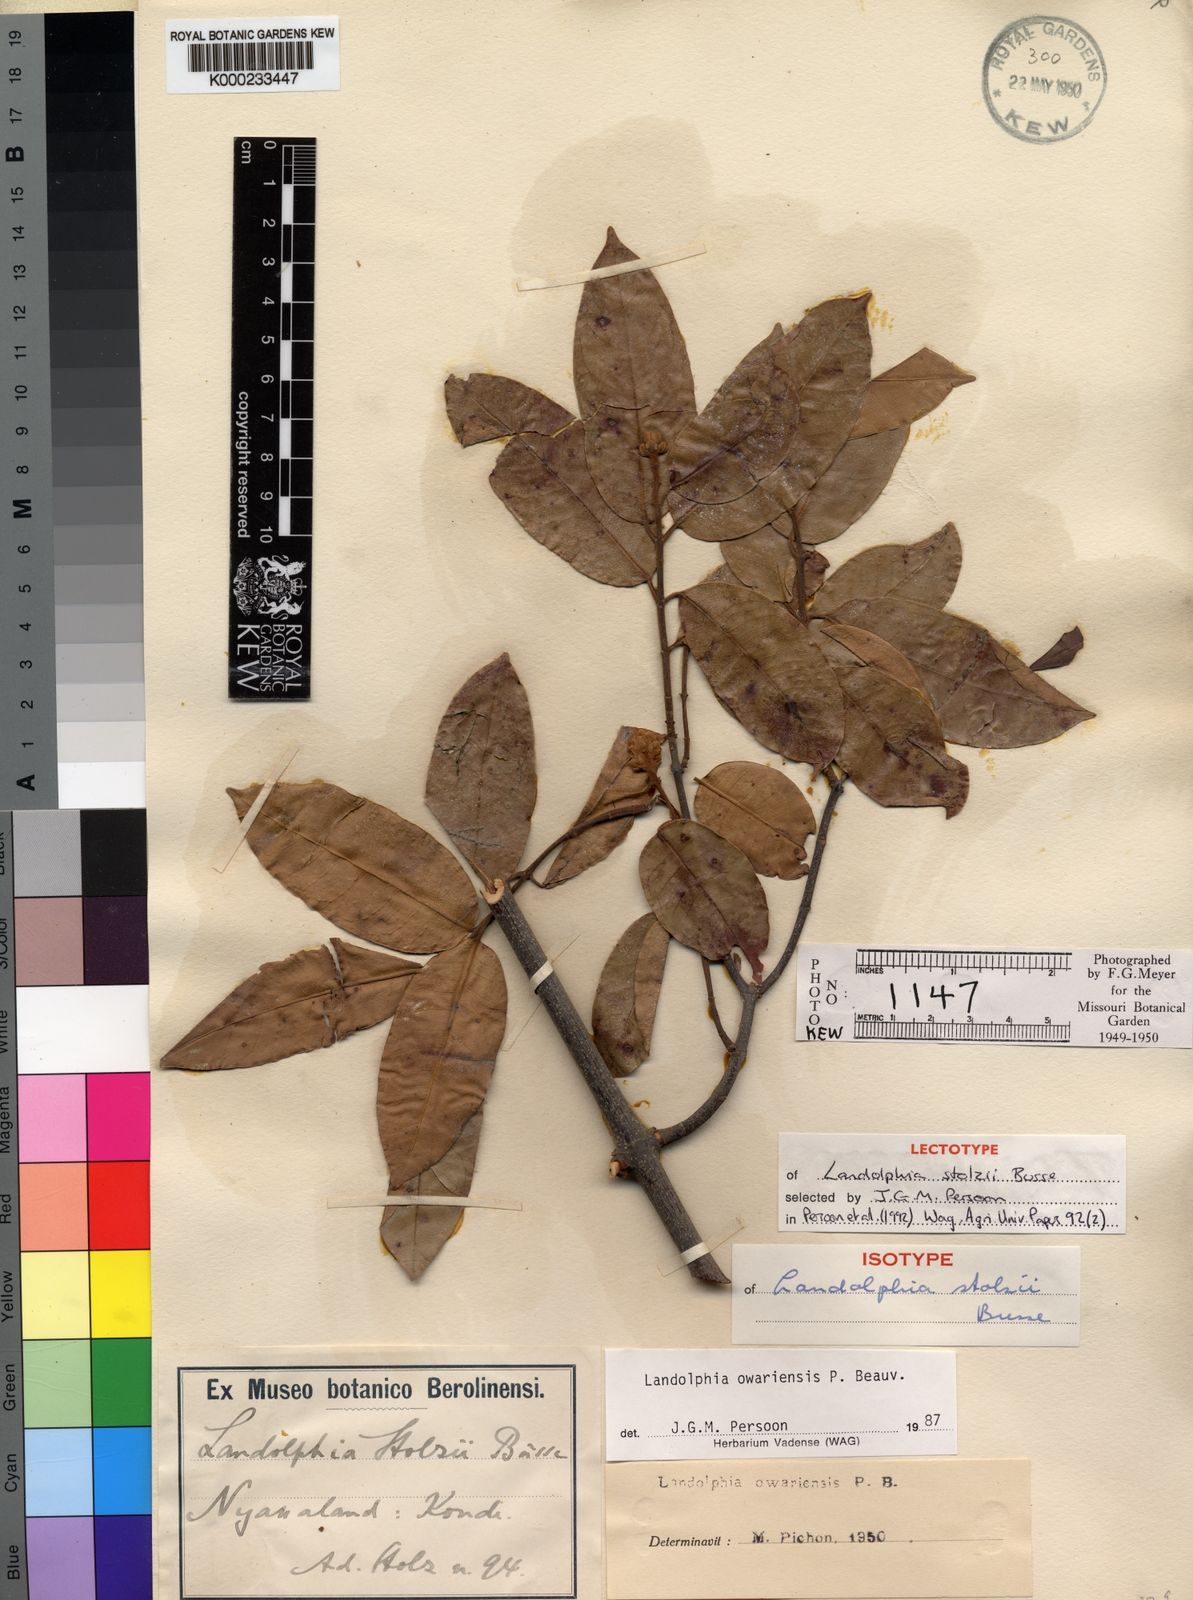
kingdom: Plantae
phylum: Tracheophyta
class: Magnoliopsida
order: Gentianales
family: Apocynaceae
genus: Landolphia
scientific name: Landolphia owariensis
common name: White-ball-rubber
